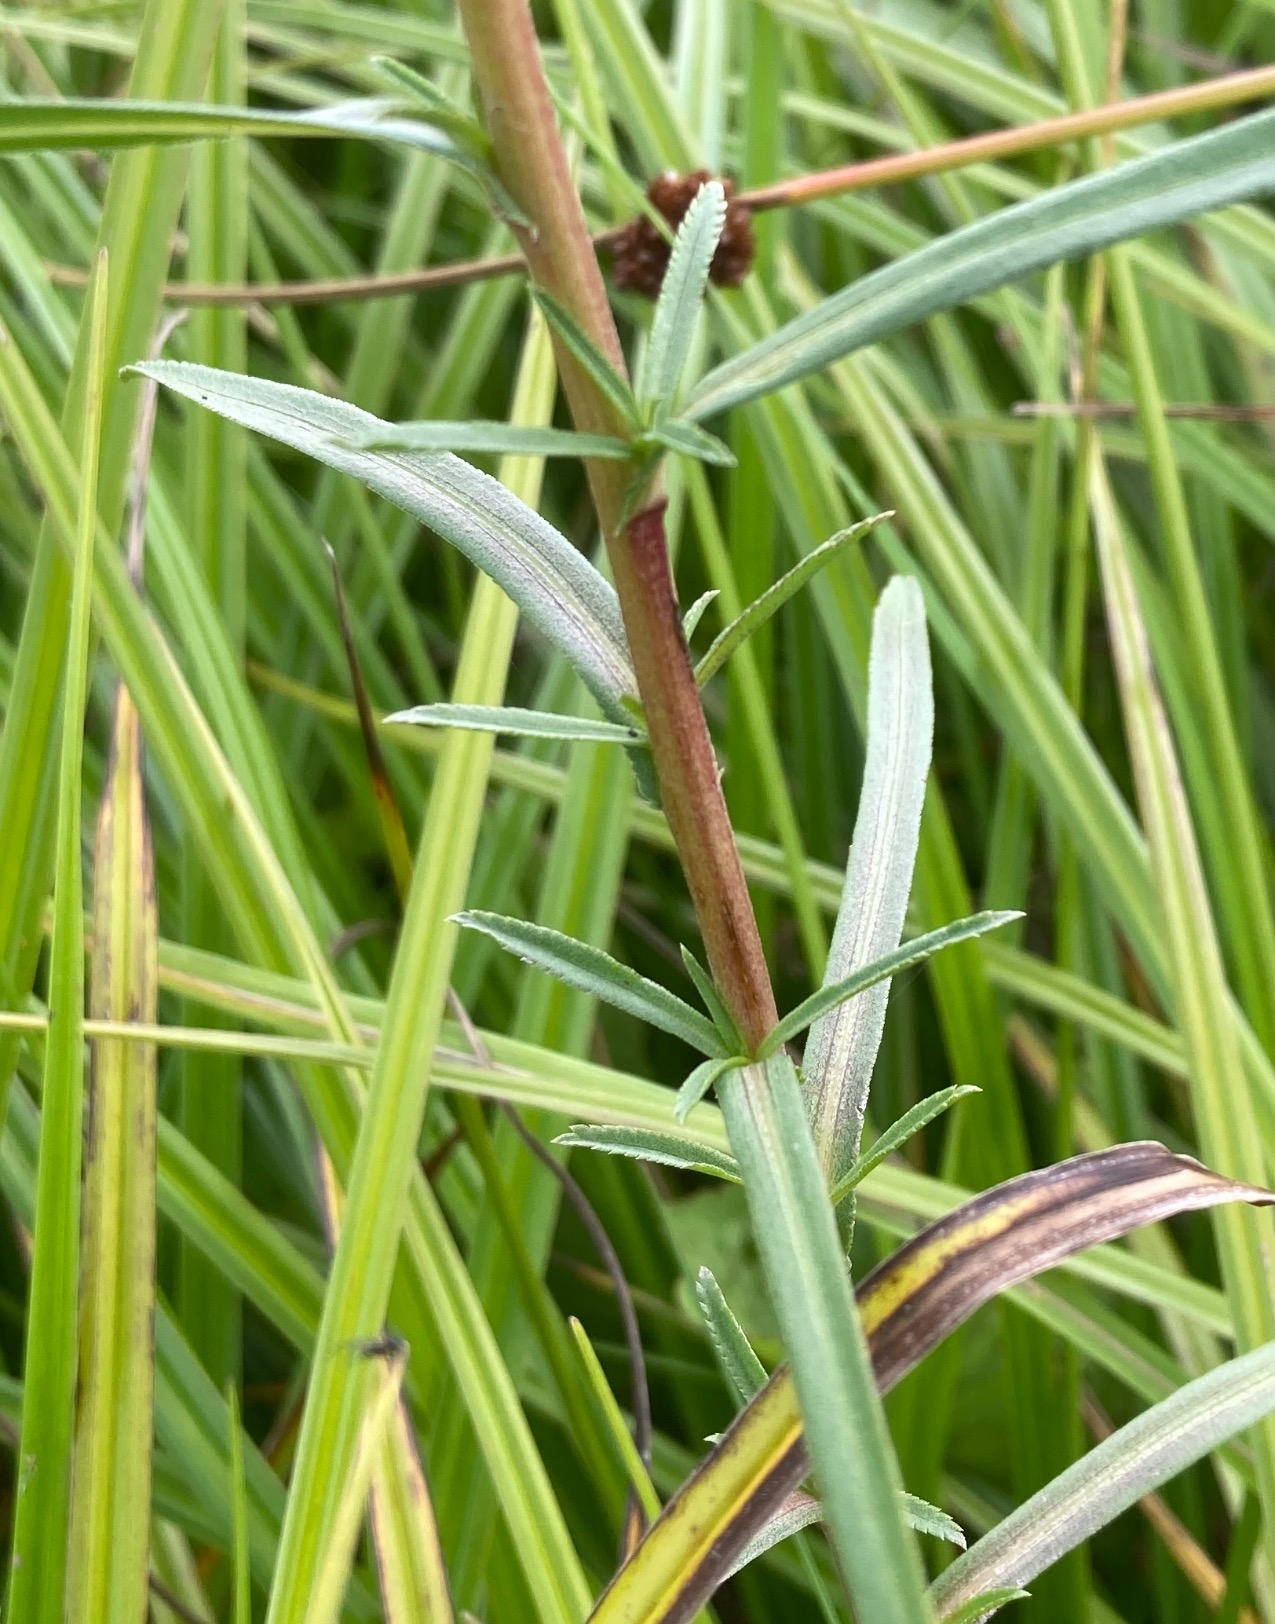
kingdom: Plantae
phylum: Tracheophyta
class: Magnoliopsida
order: Asterales
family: Asteraceae
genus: Achillea
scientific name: Achillea ptarmica
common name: Nyse-røllike
